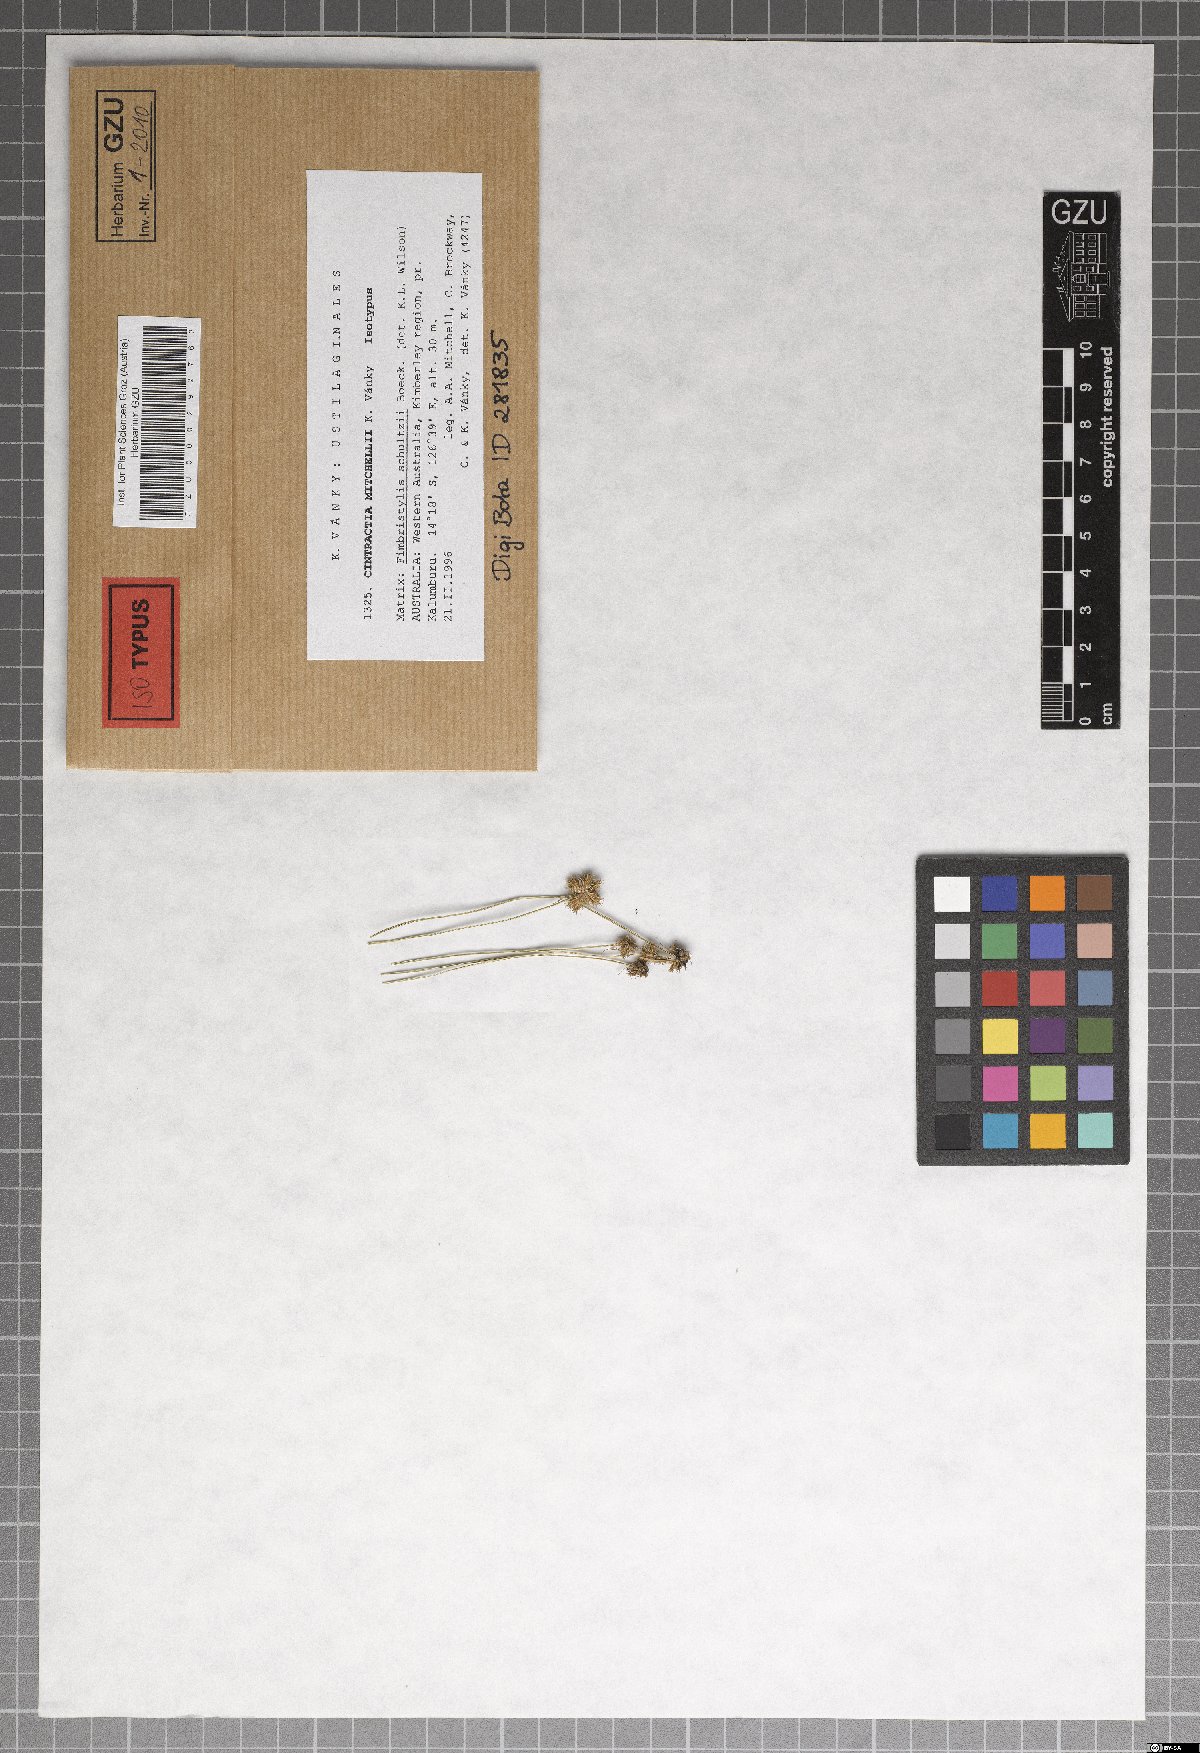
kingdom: Fungi
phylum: Basidiomycota
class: Ustilaginomycetes
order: Ustilaginales
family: Anthracoideaceae
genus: Cintractia
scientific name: Cintractia mitchellii
